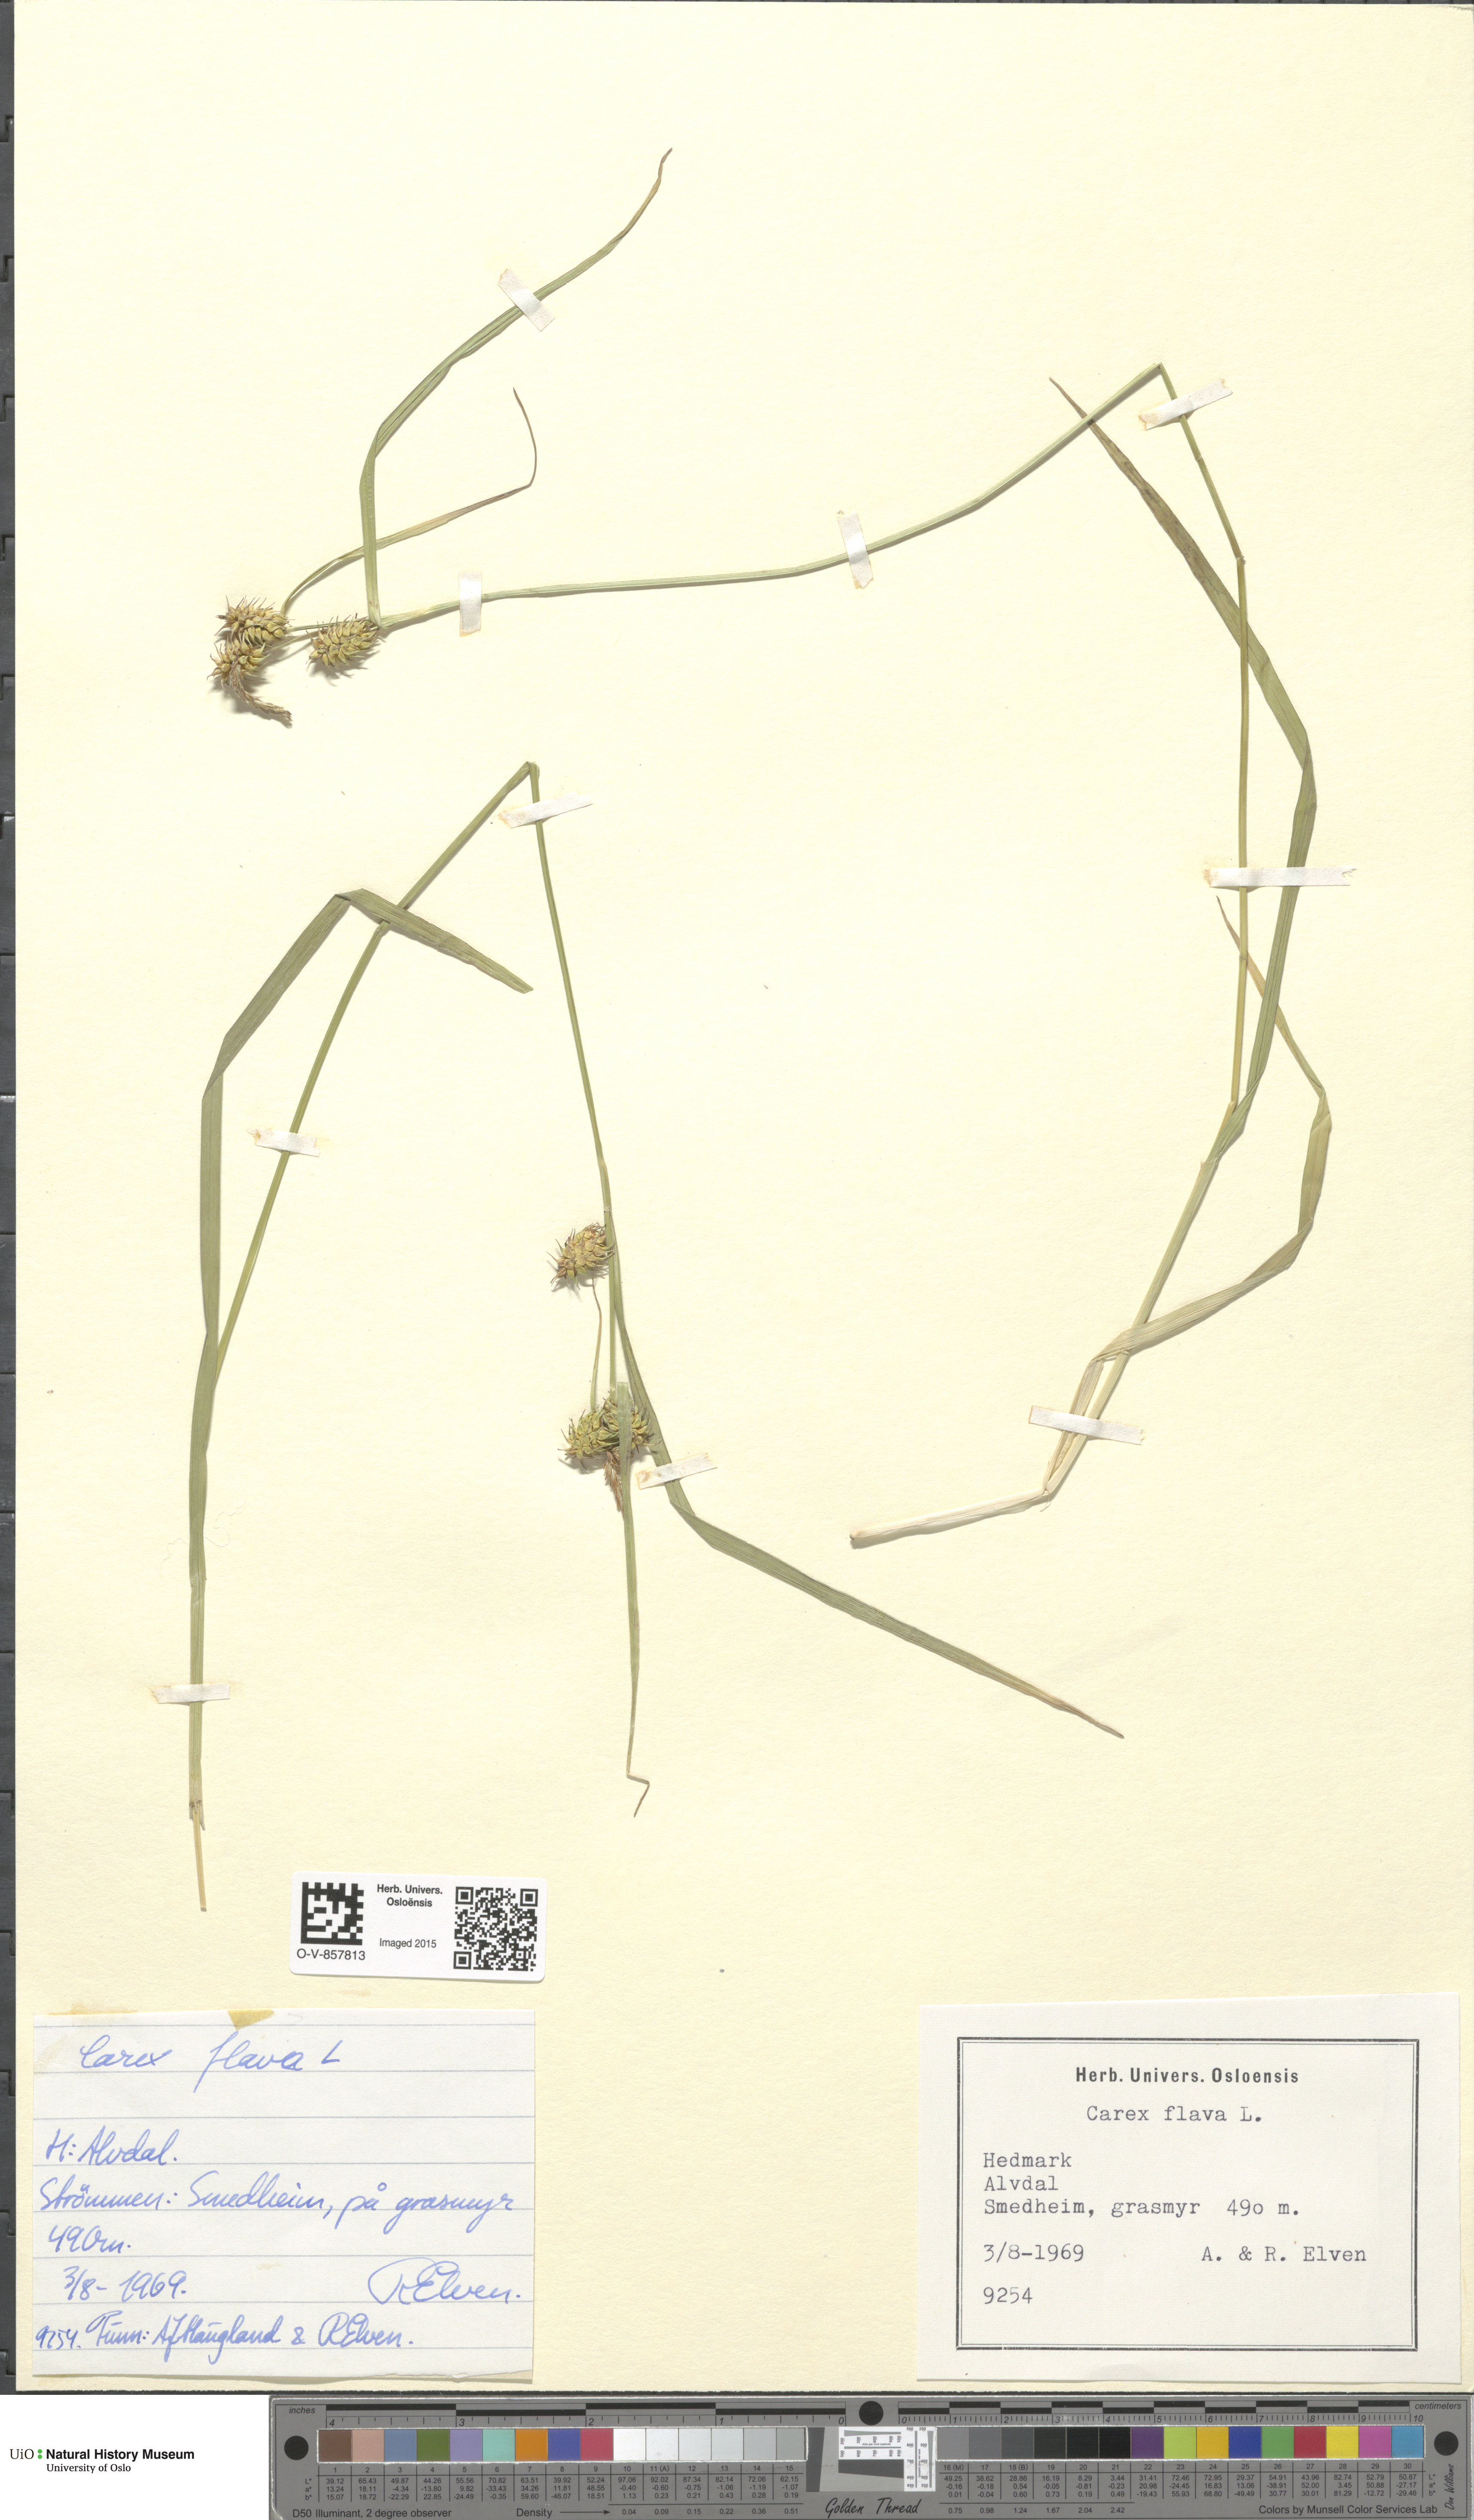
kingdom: Plantae
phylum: Tracheophyta
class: Liliopsida
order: Poales
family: Cyperaceae
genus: Carex
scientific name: Carex flava
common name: Large yellow-sedge
